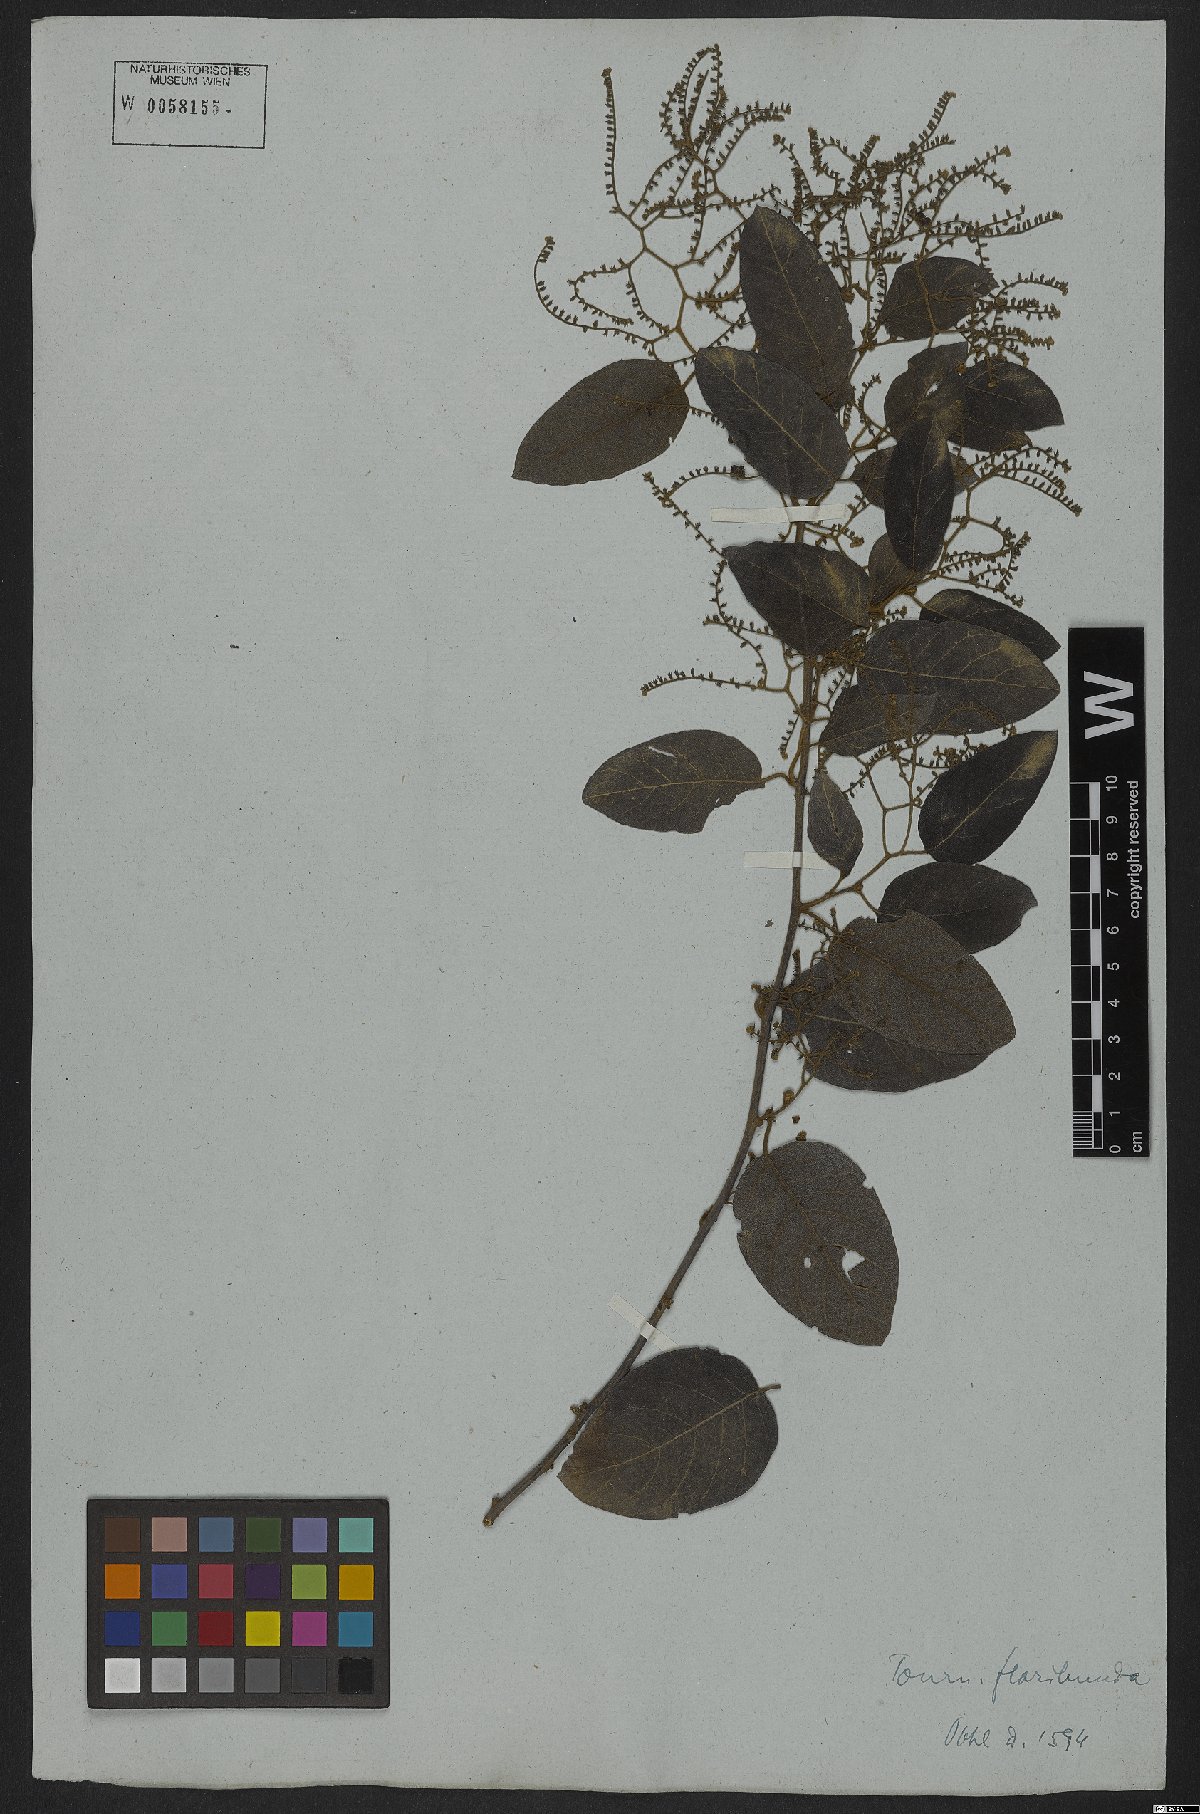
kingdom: Plantae
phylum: Tracheophyta
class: Magnoliopsida
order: Boraginales
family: Heliotropiaceae
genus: Myriopus
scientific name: Myriopus volubilis
